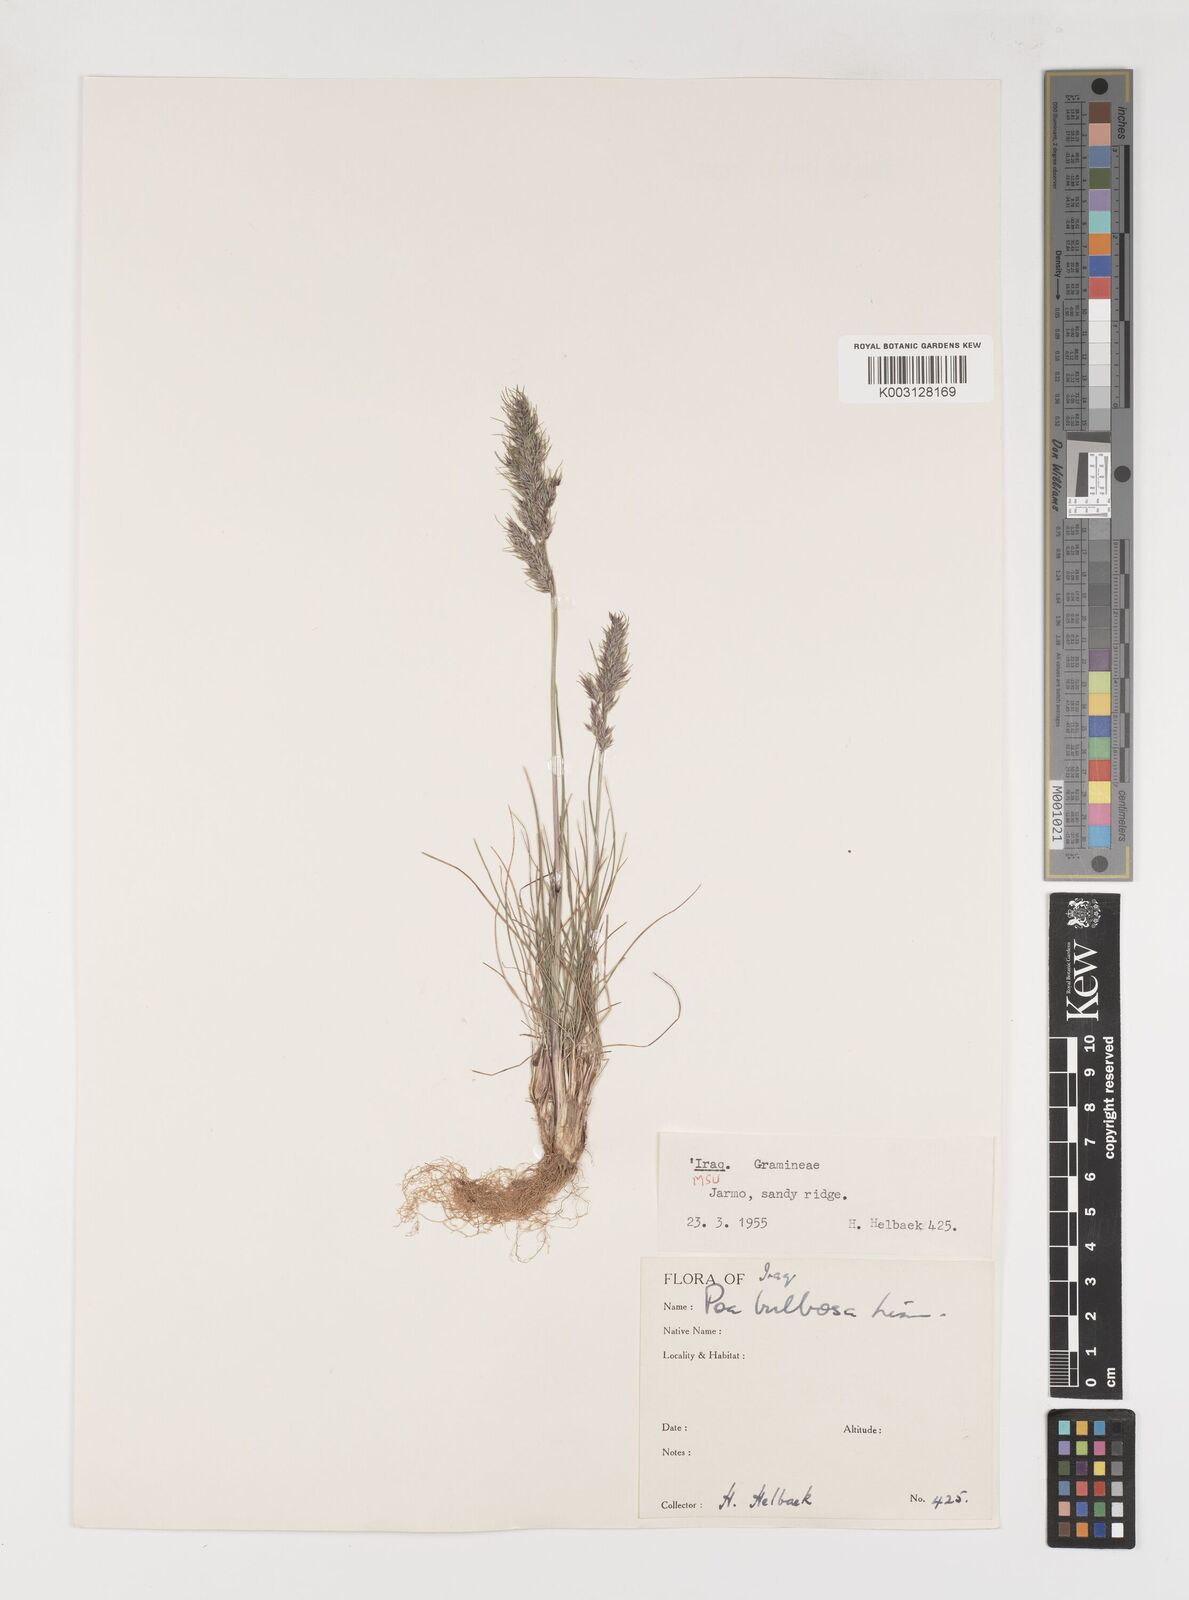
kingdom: Plantae
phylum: Tracheophyta
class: Liliopsida
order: Poales
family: Poaceae
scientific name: Poaceae
